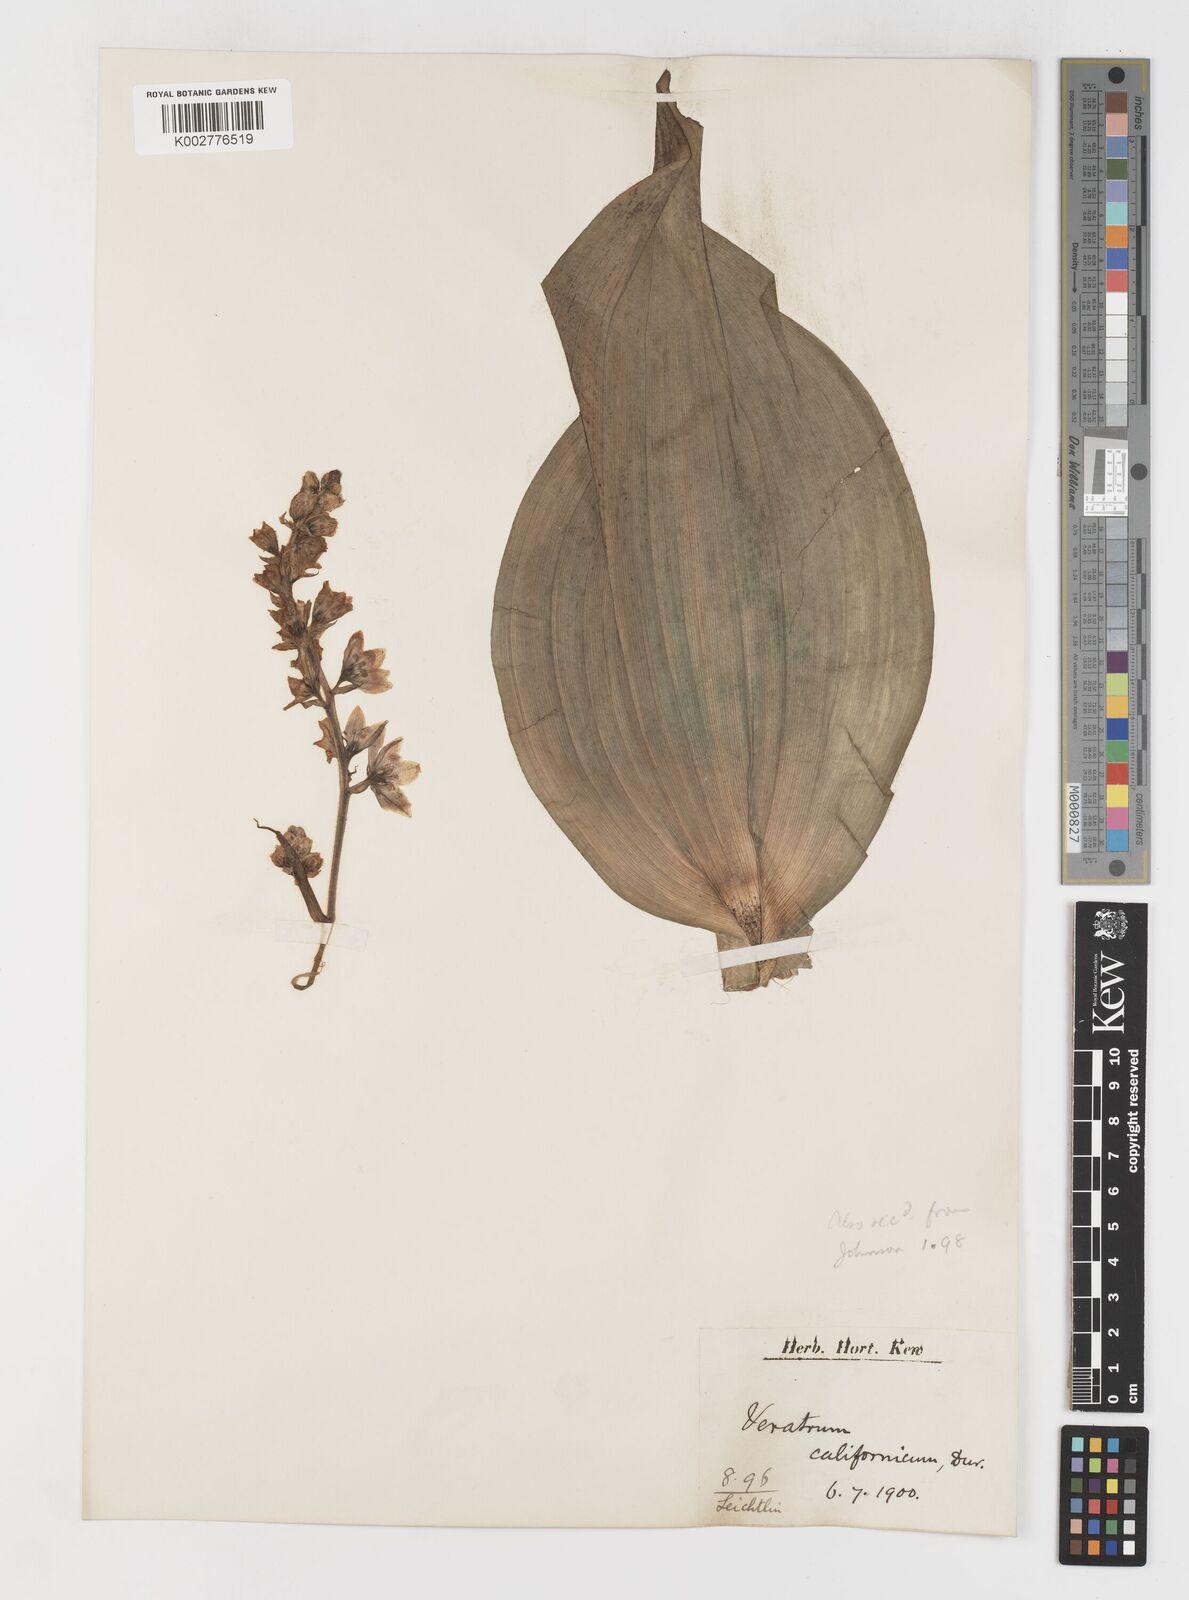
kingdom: Plantae
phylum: Tracheophyta
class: Liliopsida
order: Liliales
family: Melanthiaceae
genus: Veratrum
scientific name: Veratrum californicum
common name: California veratrum
